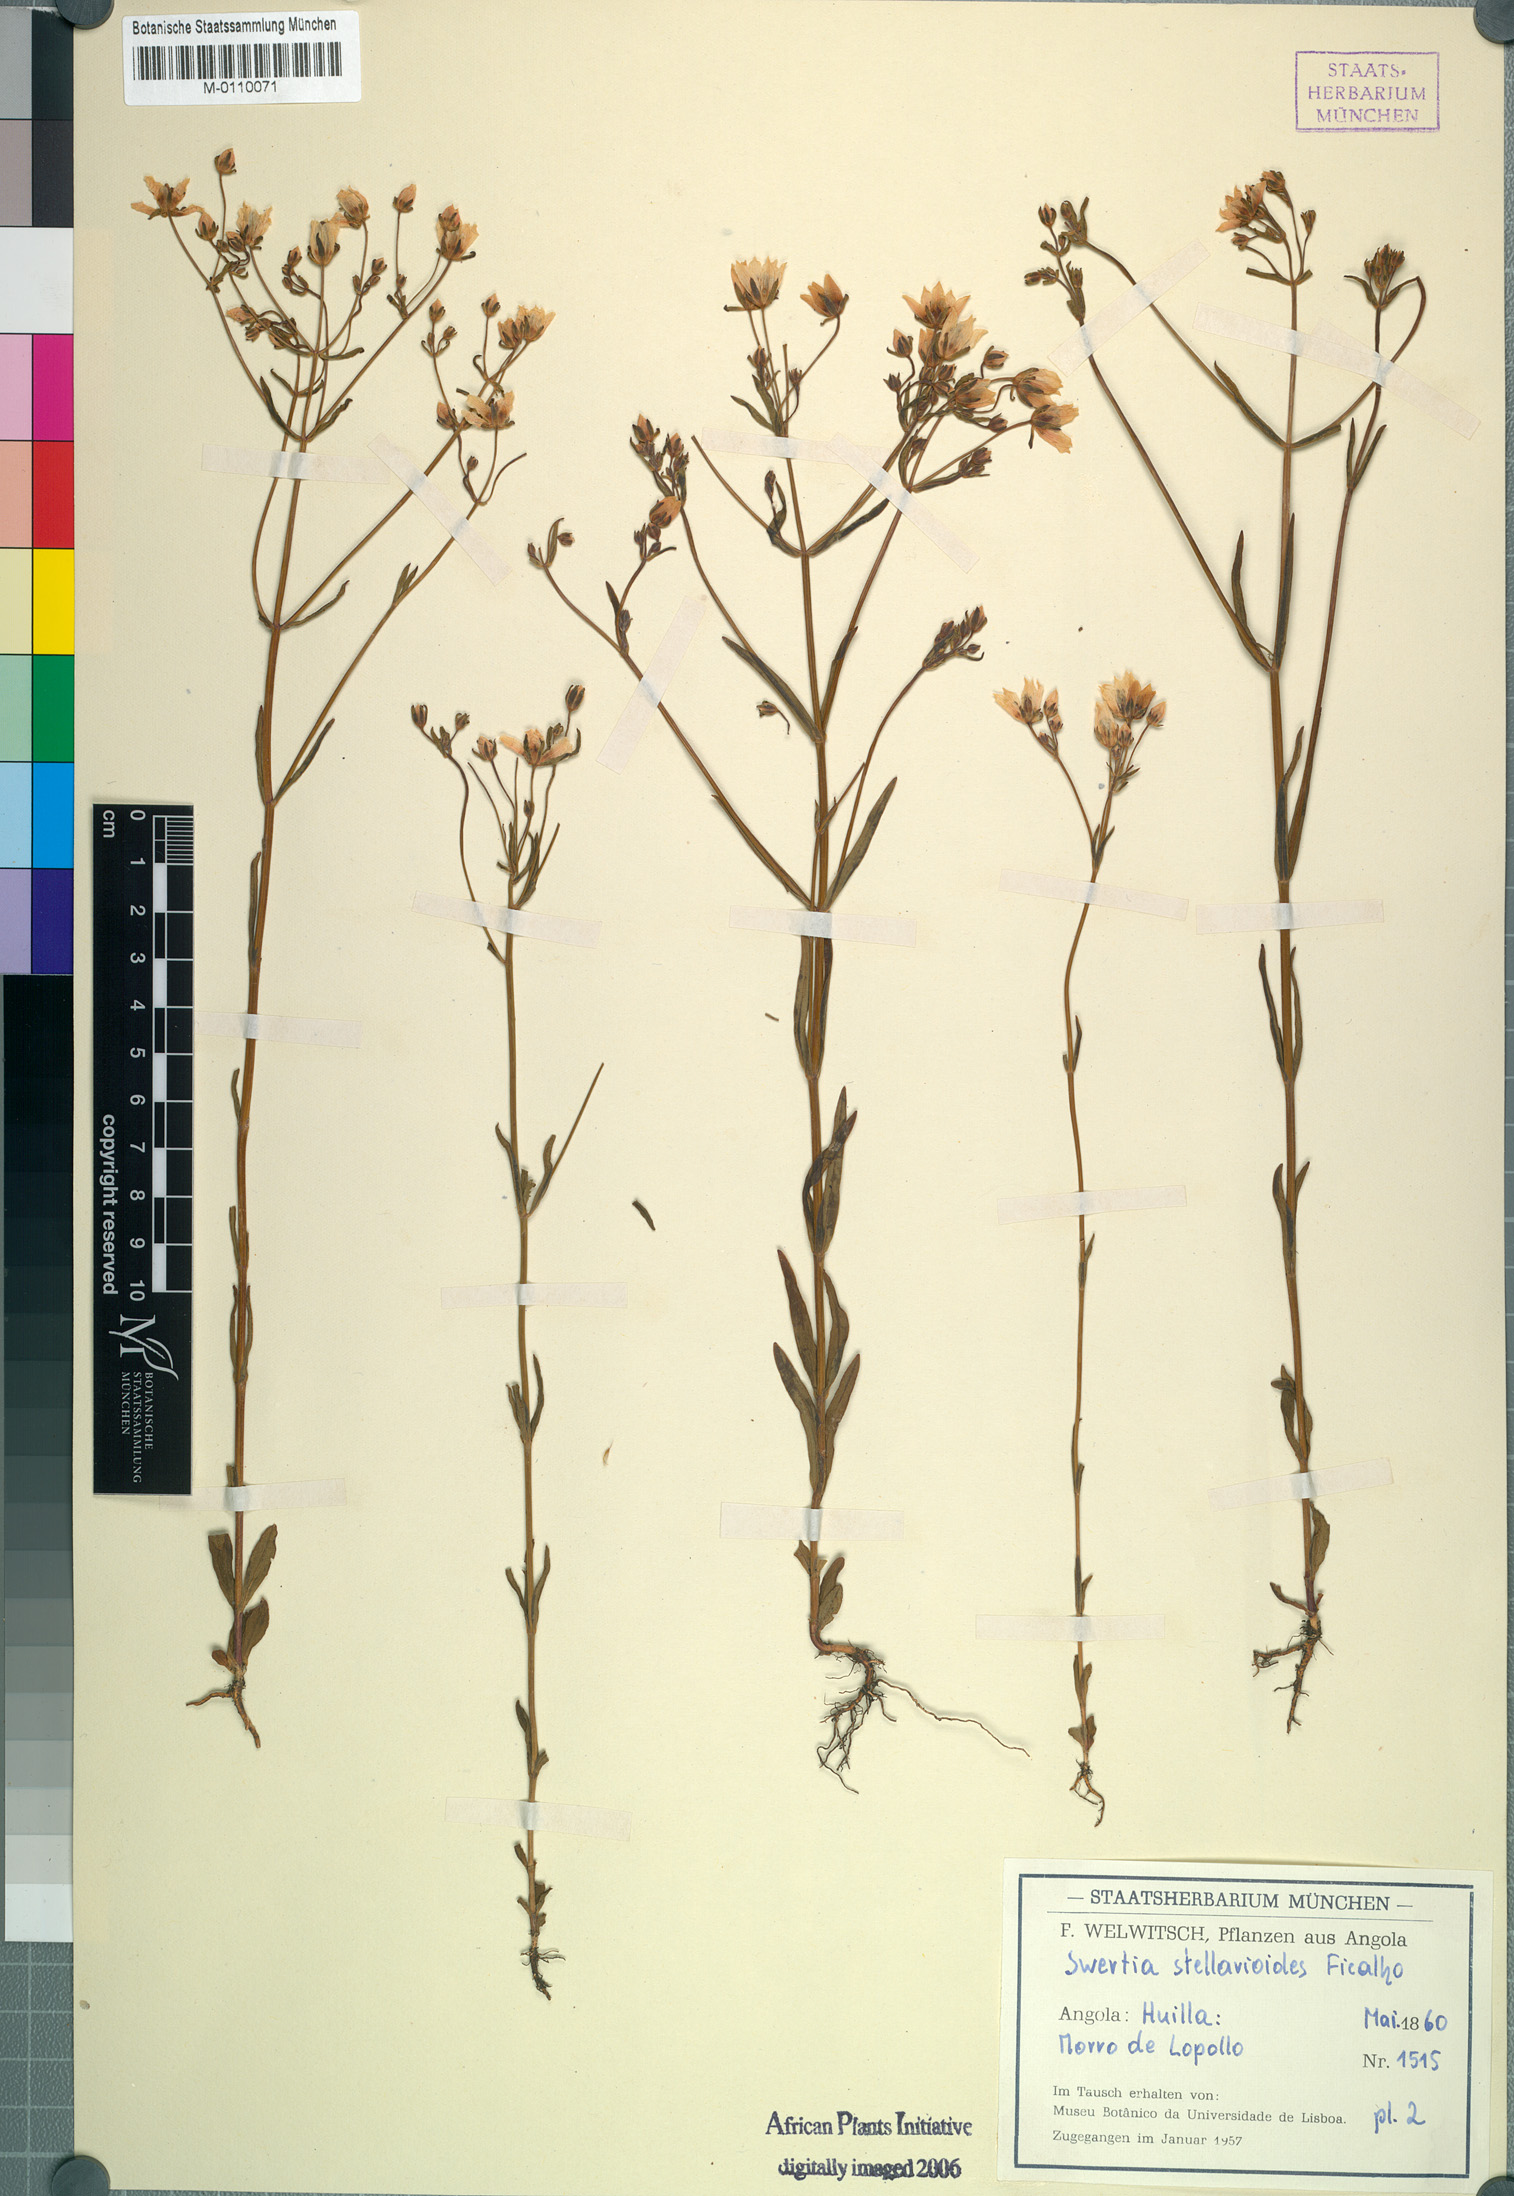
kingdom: Plantae
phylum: Tracheophyta
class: Magnoliopsida
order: Gentianales
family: Gentianaceae
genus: Swertia
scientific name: Swertia welwitschii
